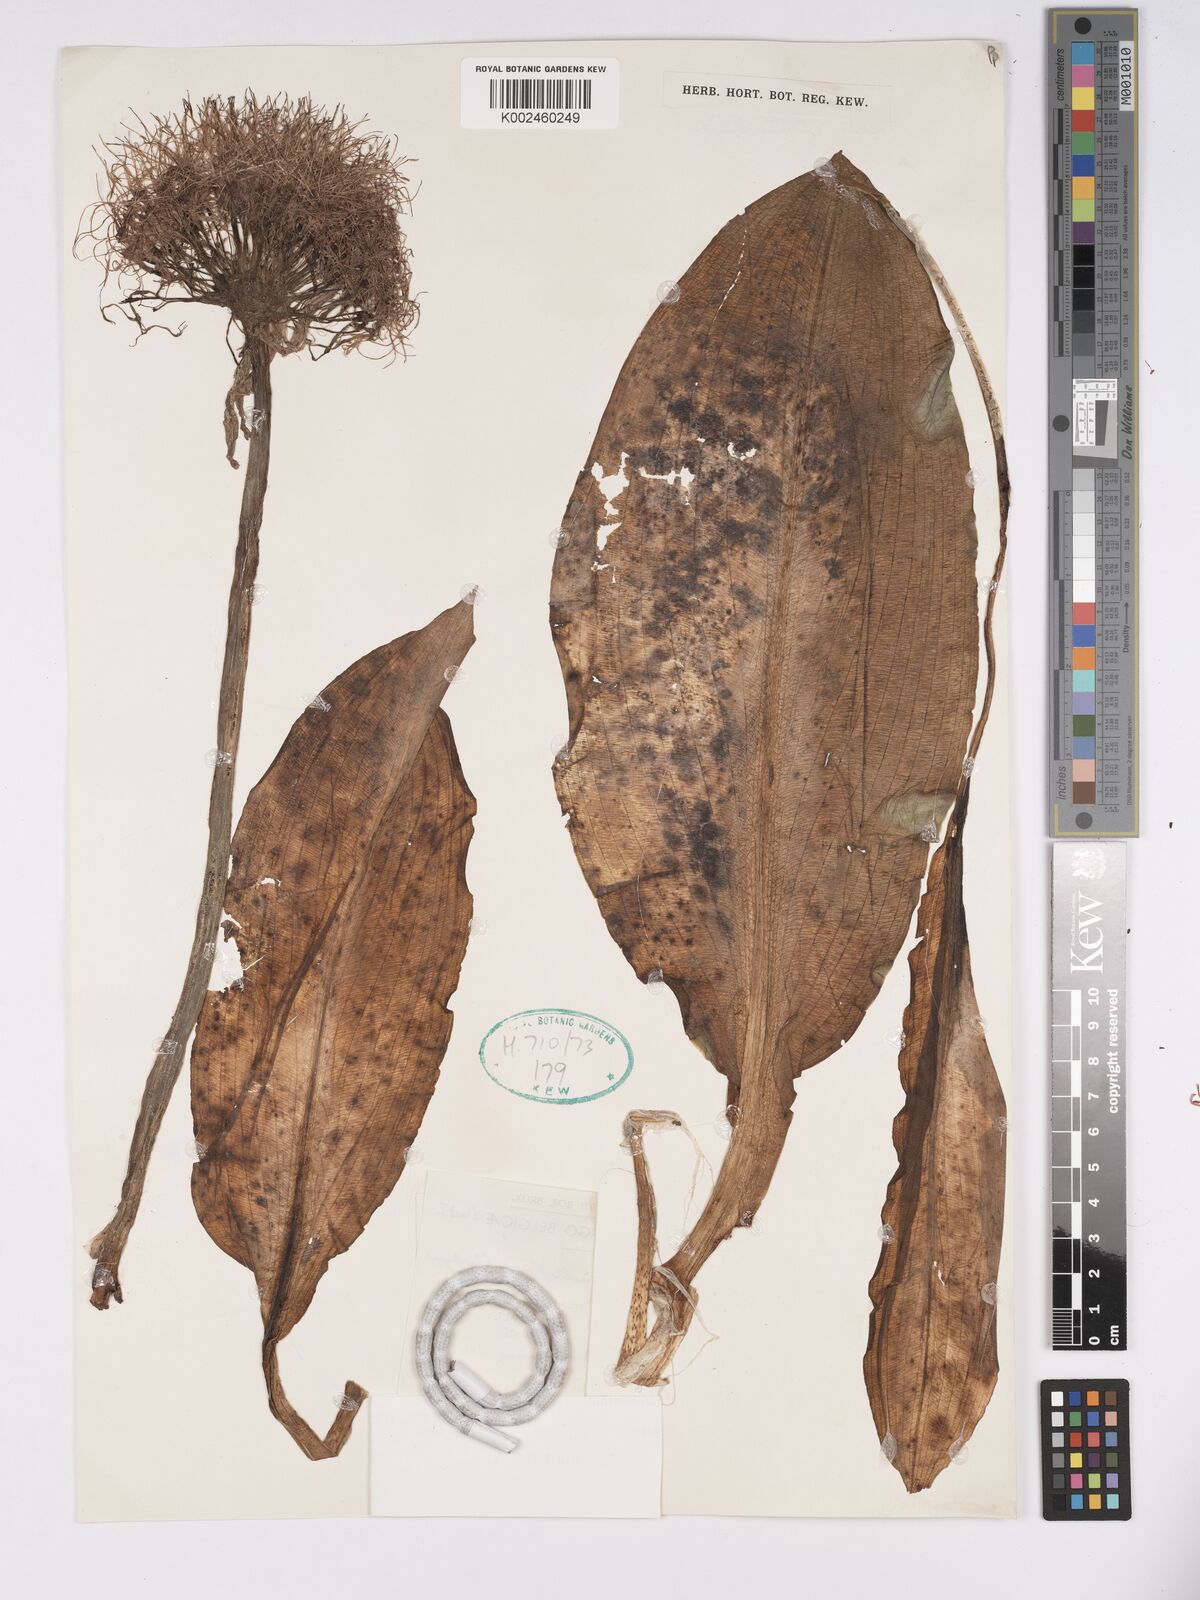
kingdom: Plantae
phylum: Tracheophyta
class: Liliopsida
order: Asparagales
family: Amaryllidaceae
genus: Scadoxus
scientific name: Scadoxus multiflorus
